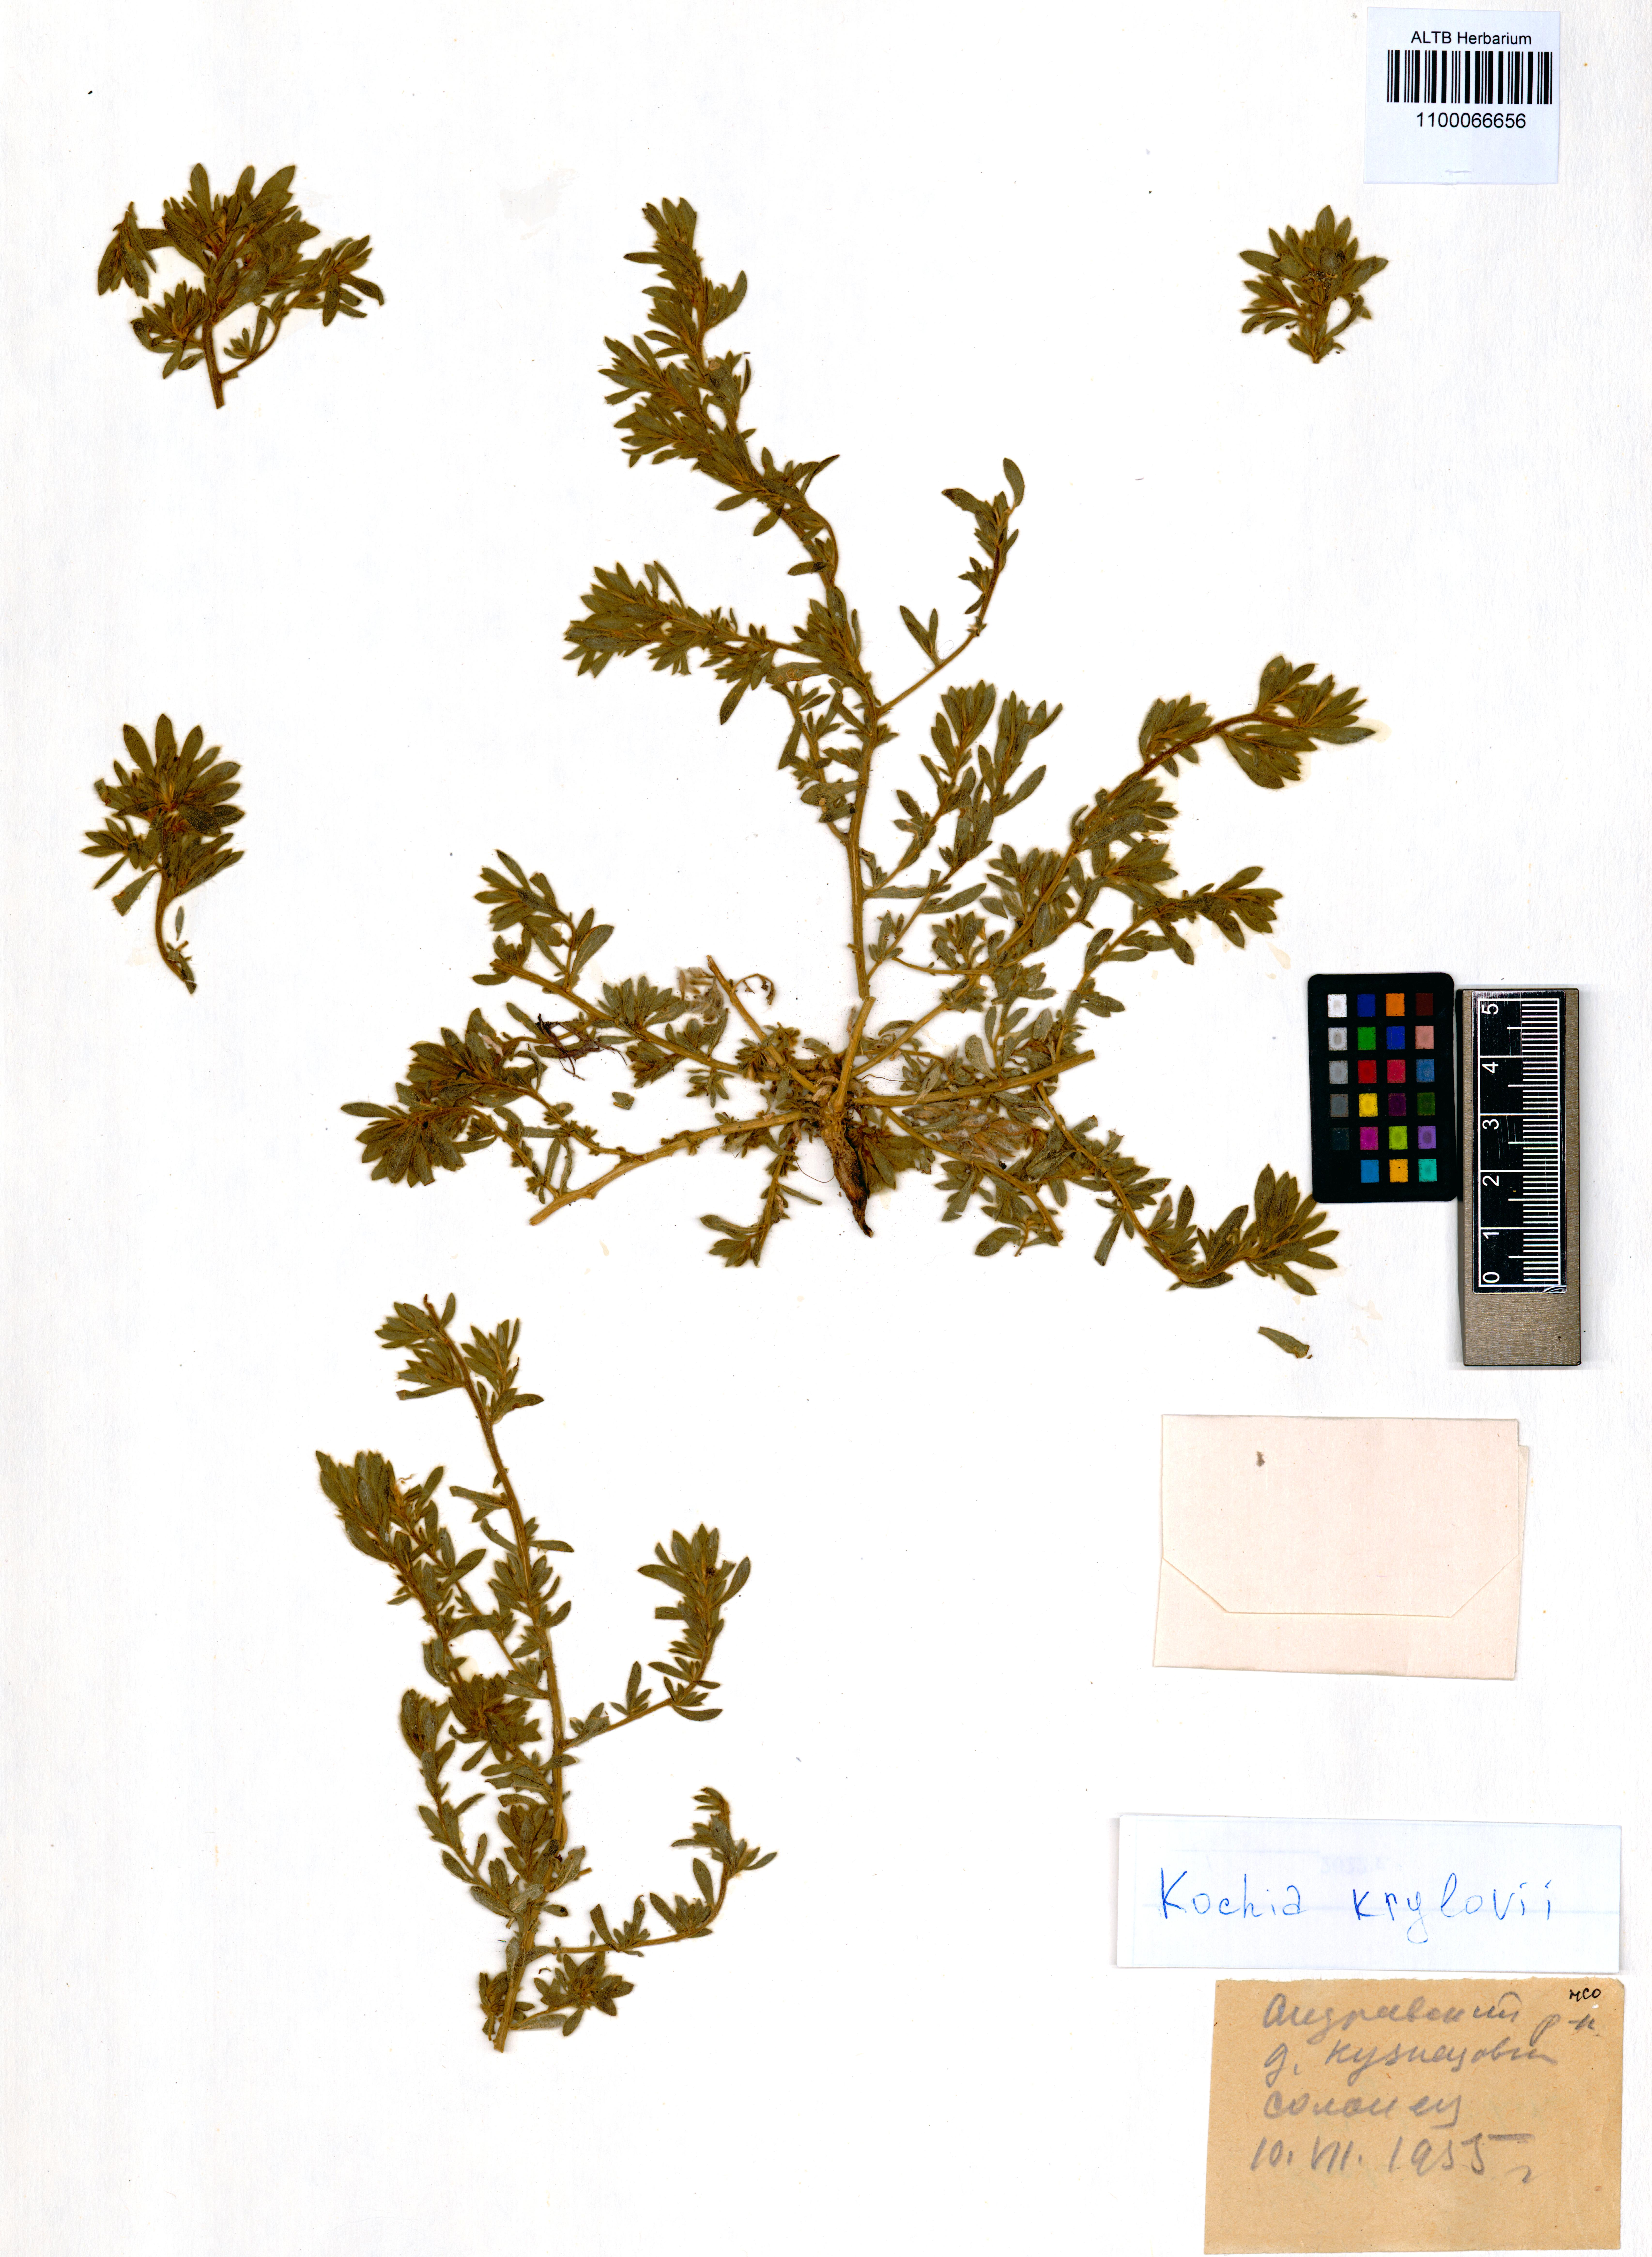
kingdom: Plantae
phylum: Tracheophyta
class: Magnoliopsida
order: Caryophyllales
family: Amaranthaceae
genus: Grubovia
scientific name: Grubovia krylowii
